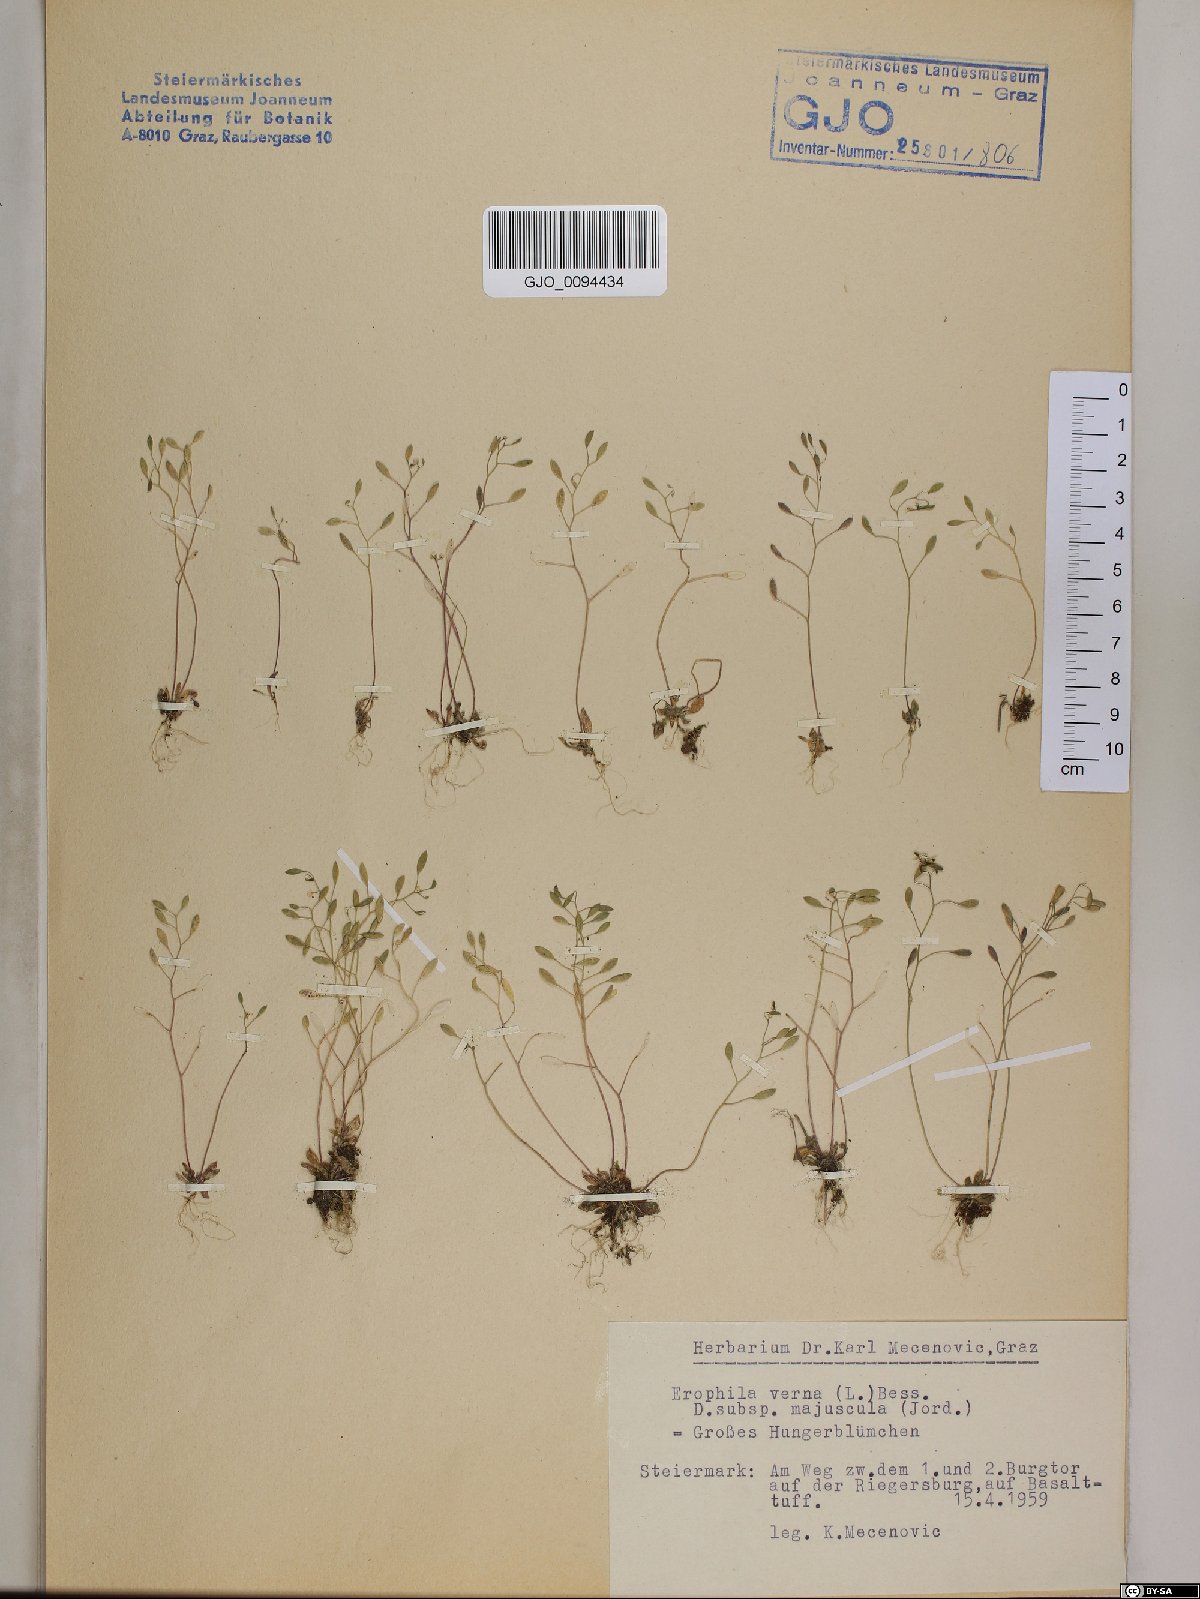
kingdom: Plantae
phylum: Tracheophyta
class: Magnoliopsida
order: Brassicales
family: Brassicaceae
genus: Draba
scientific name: Draba verna
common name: Spring draba
